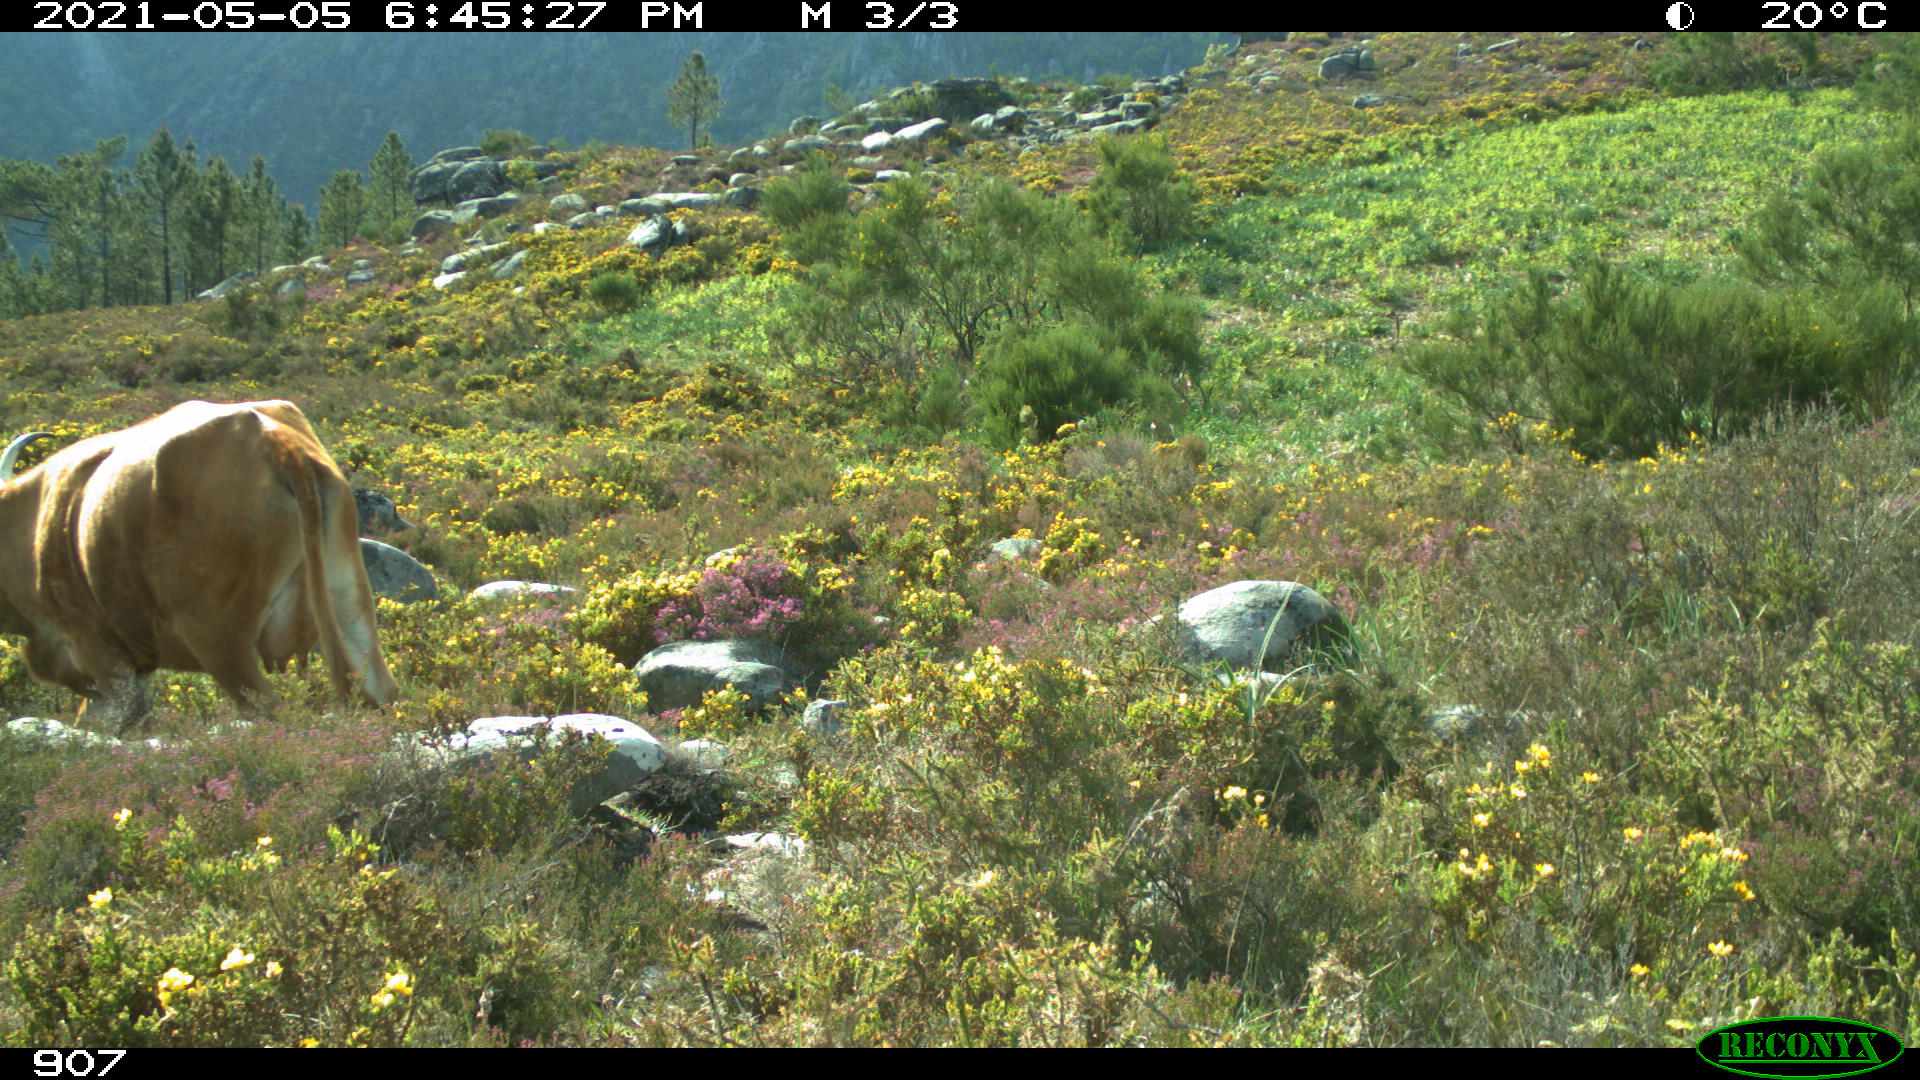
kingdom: Animalia
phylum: Chordata
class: Mammalia
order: Artiodactyla
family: Bovidae
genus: Bos
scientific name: Bos taurus
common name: Domesticated cattle
